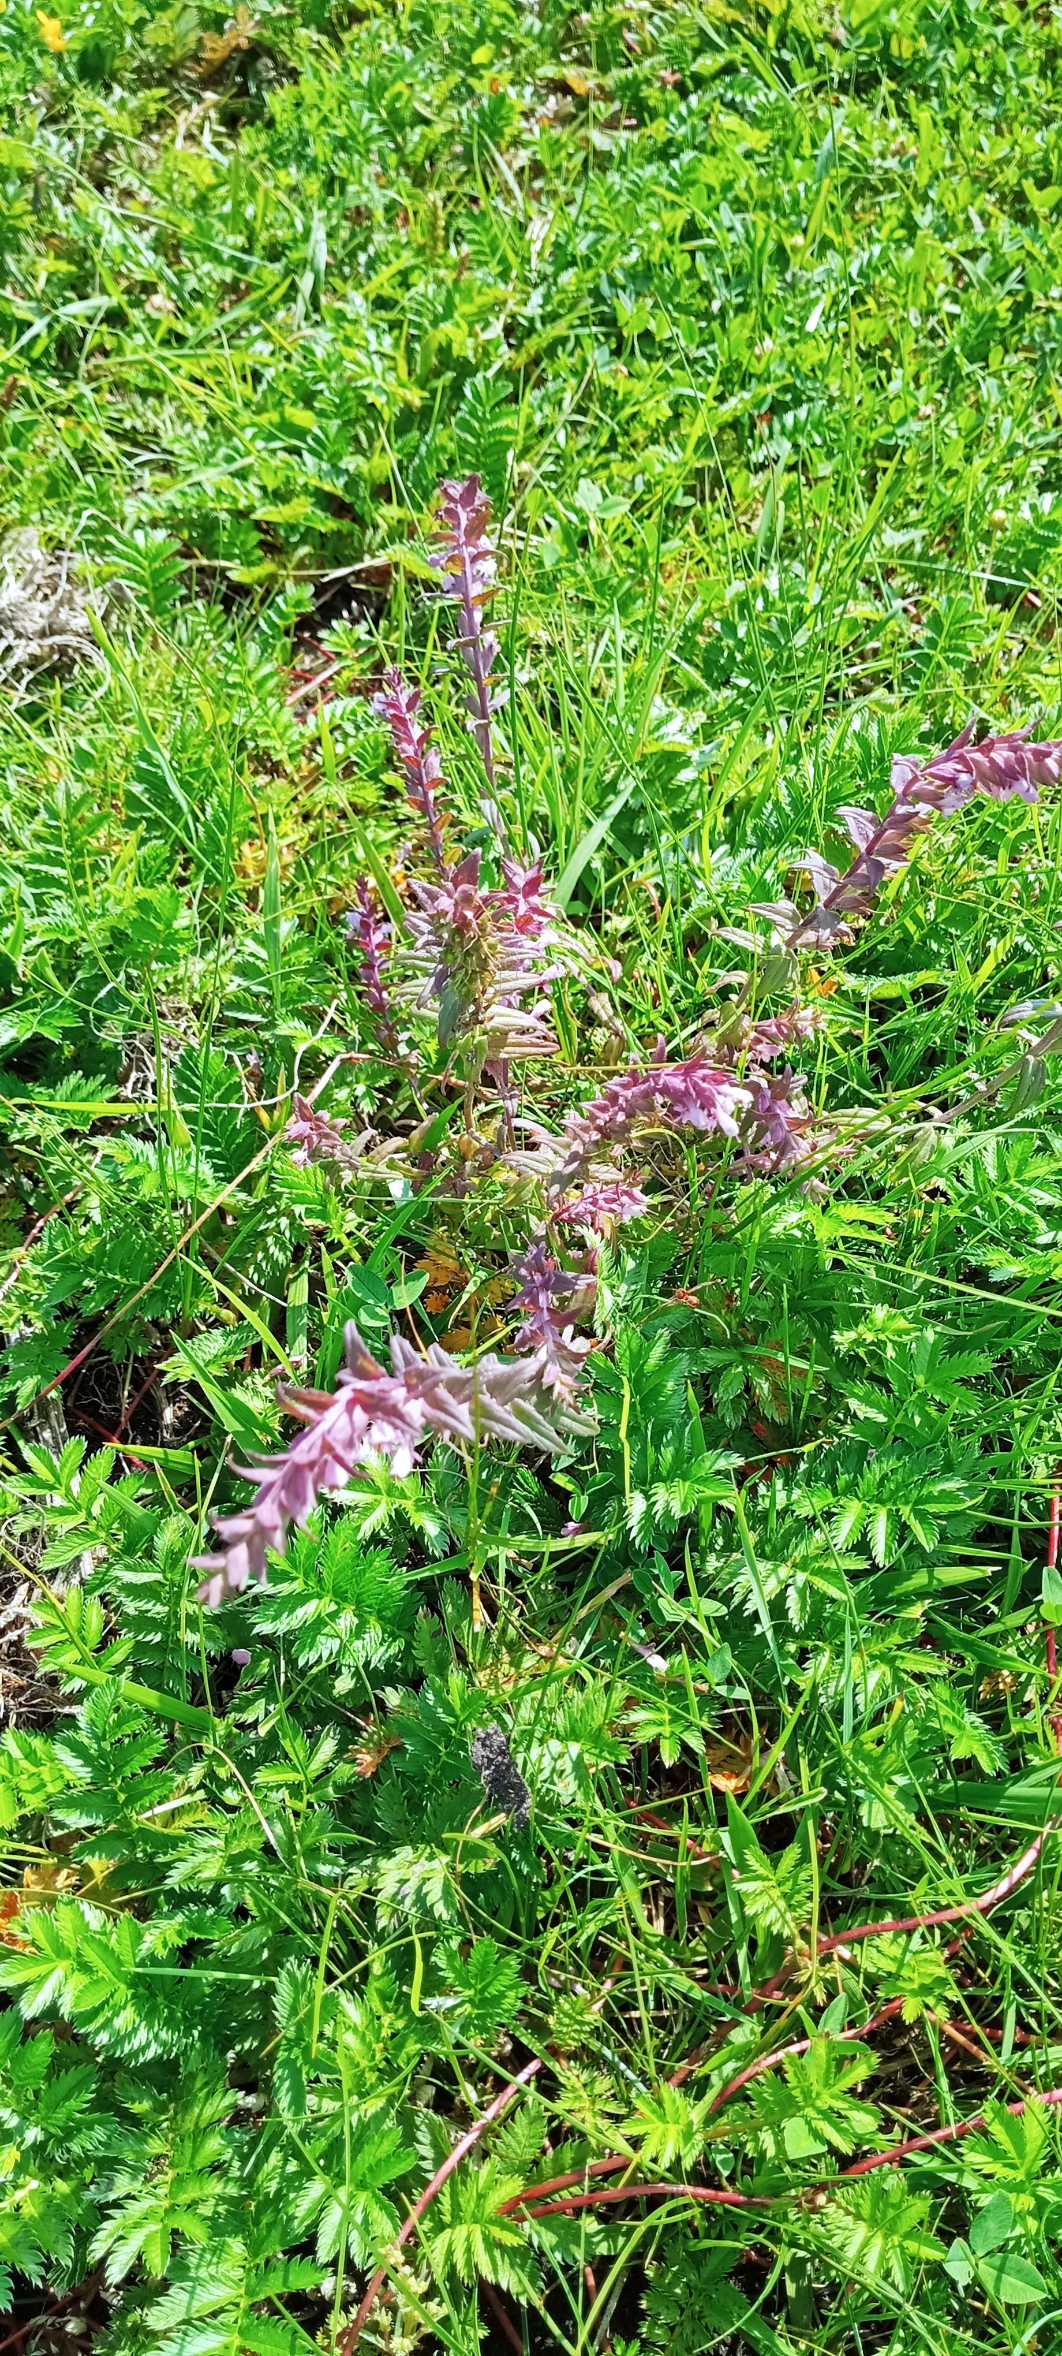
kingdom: Plantae
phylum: Tracheophyta
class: Magnoliopsida
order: Lamiales
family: Orobanchaceae
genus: Odontites
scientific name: Odontites vulgaris
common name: Høst-rødtop
